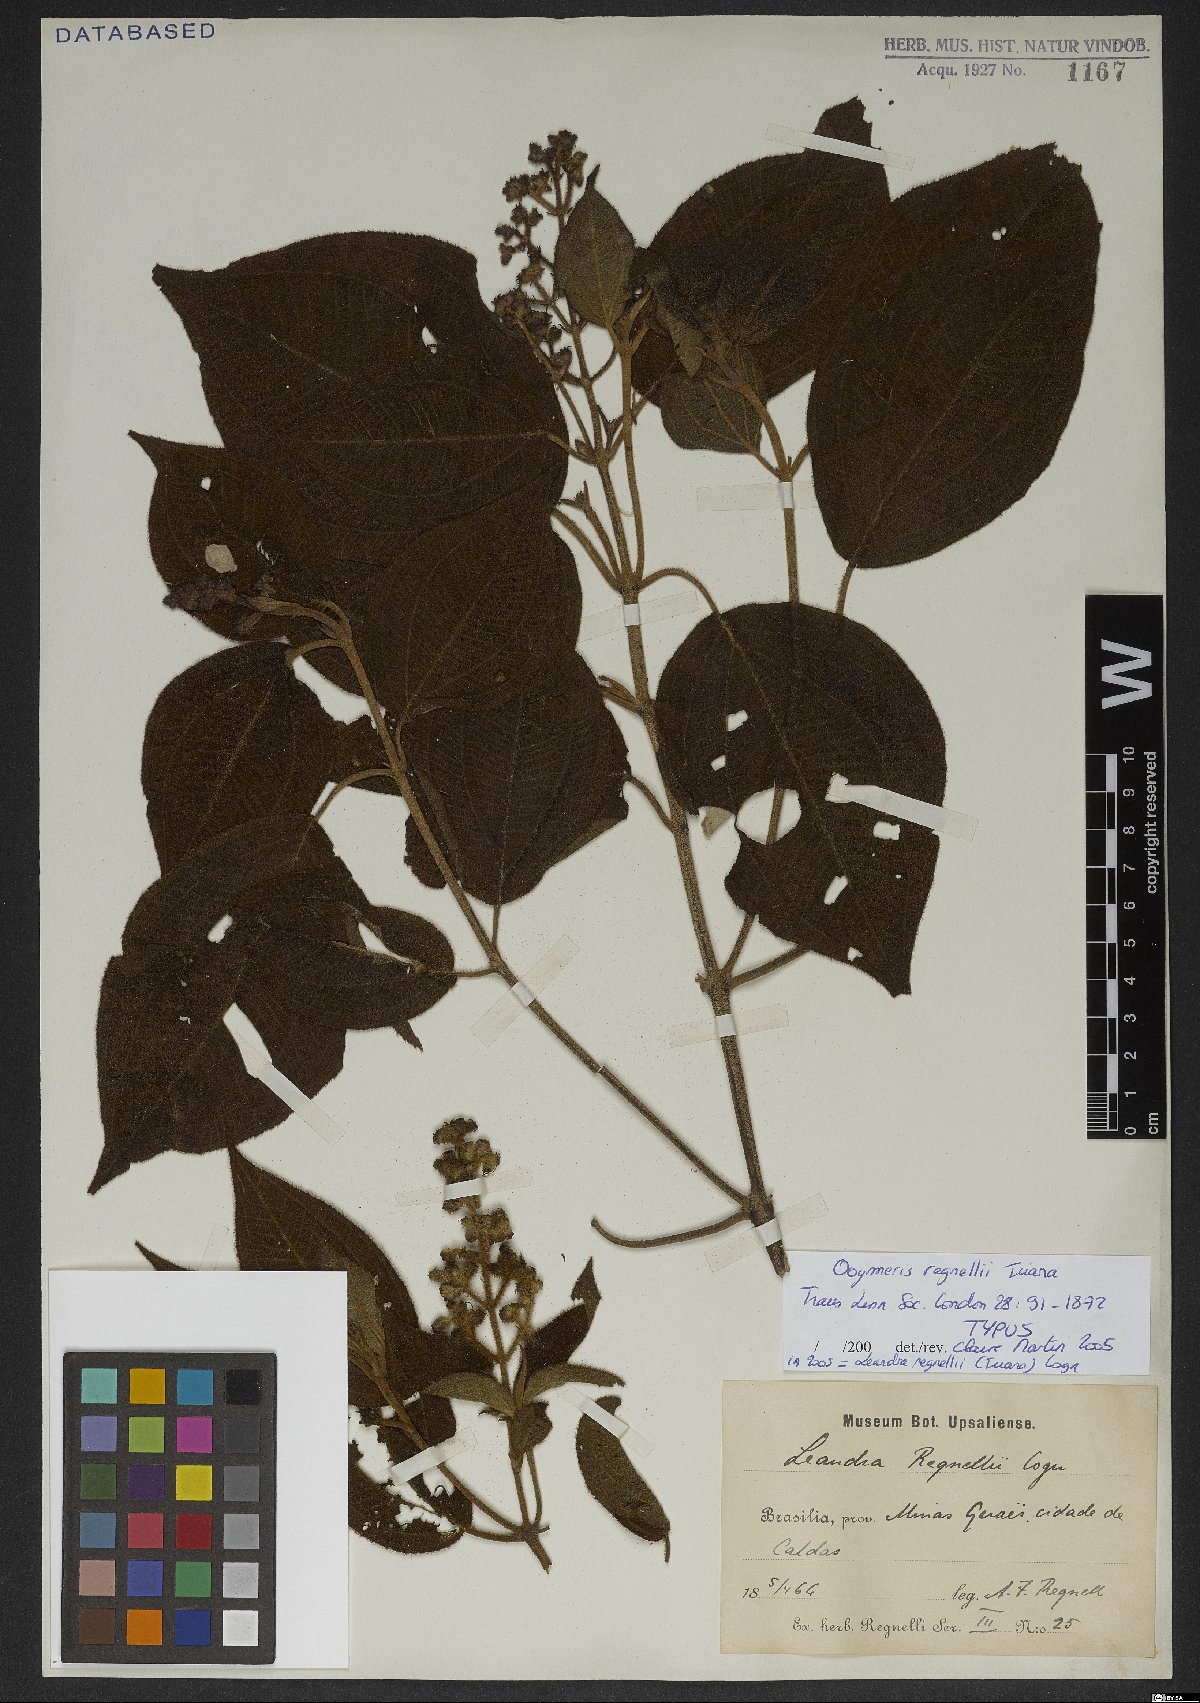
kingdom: Plantae
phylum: Tracheophyta
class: Magnoliopsida
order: Myrtales
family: Melastomataceae
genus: Miconia
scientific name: Miconia alterninervia
